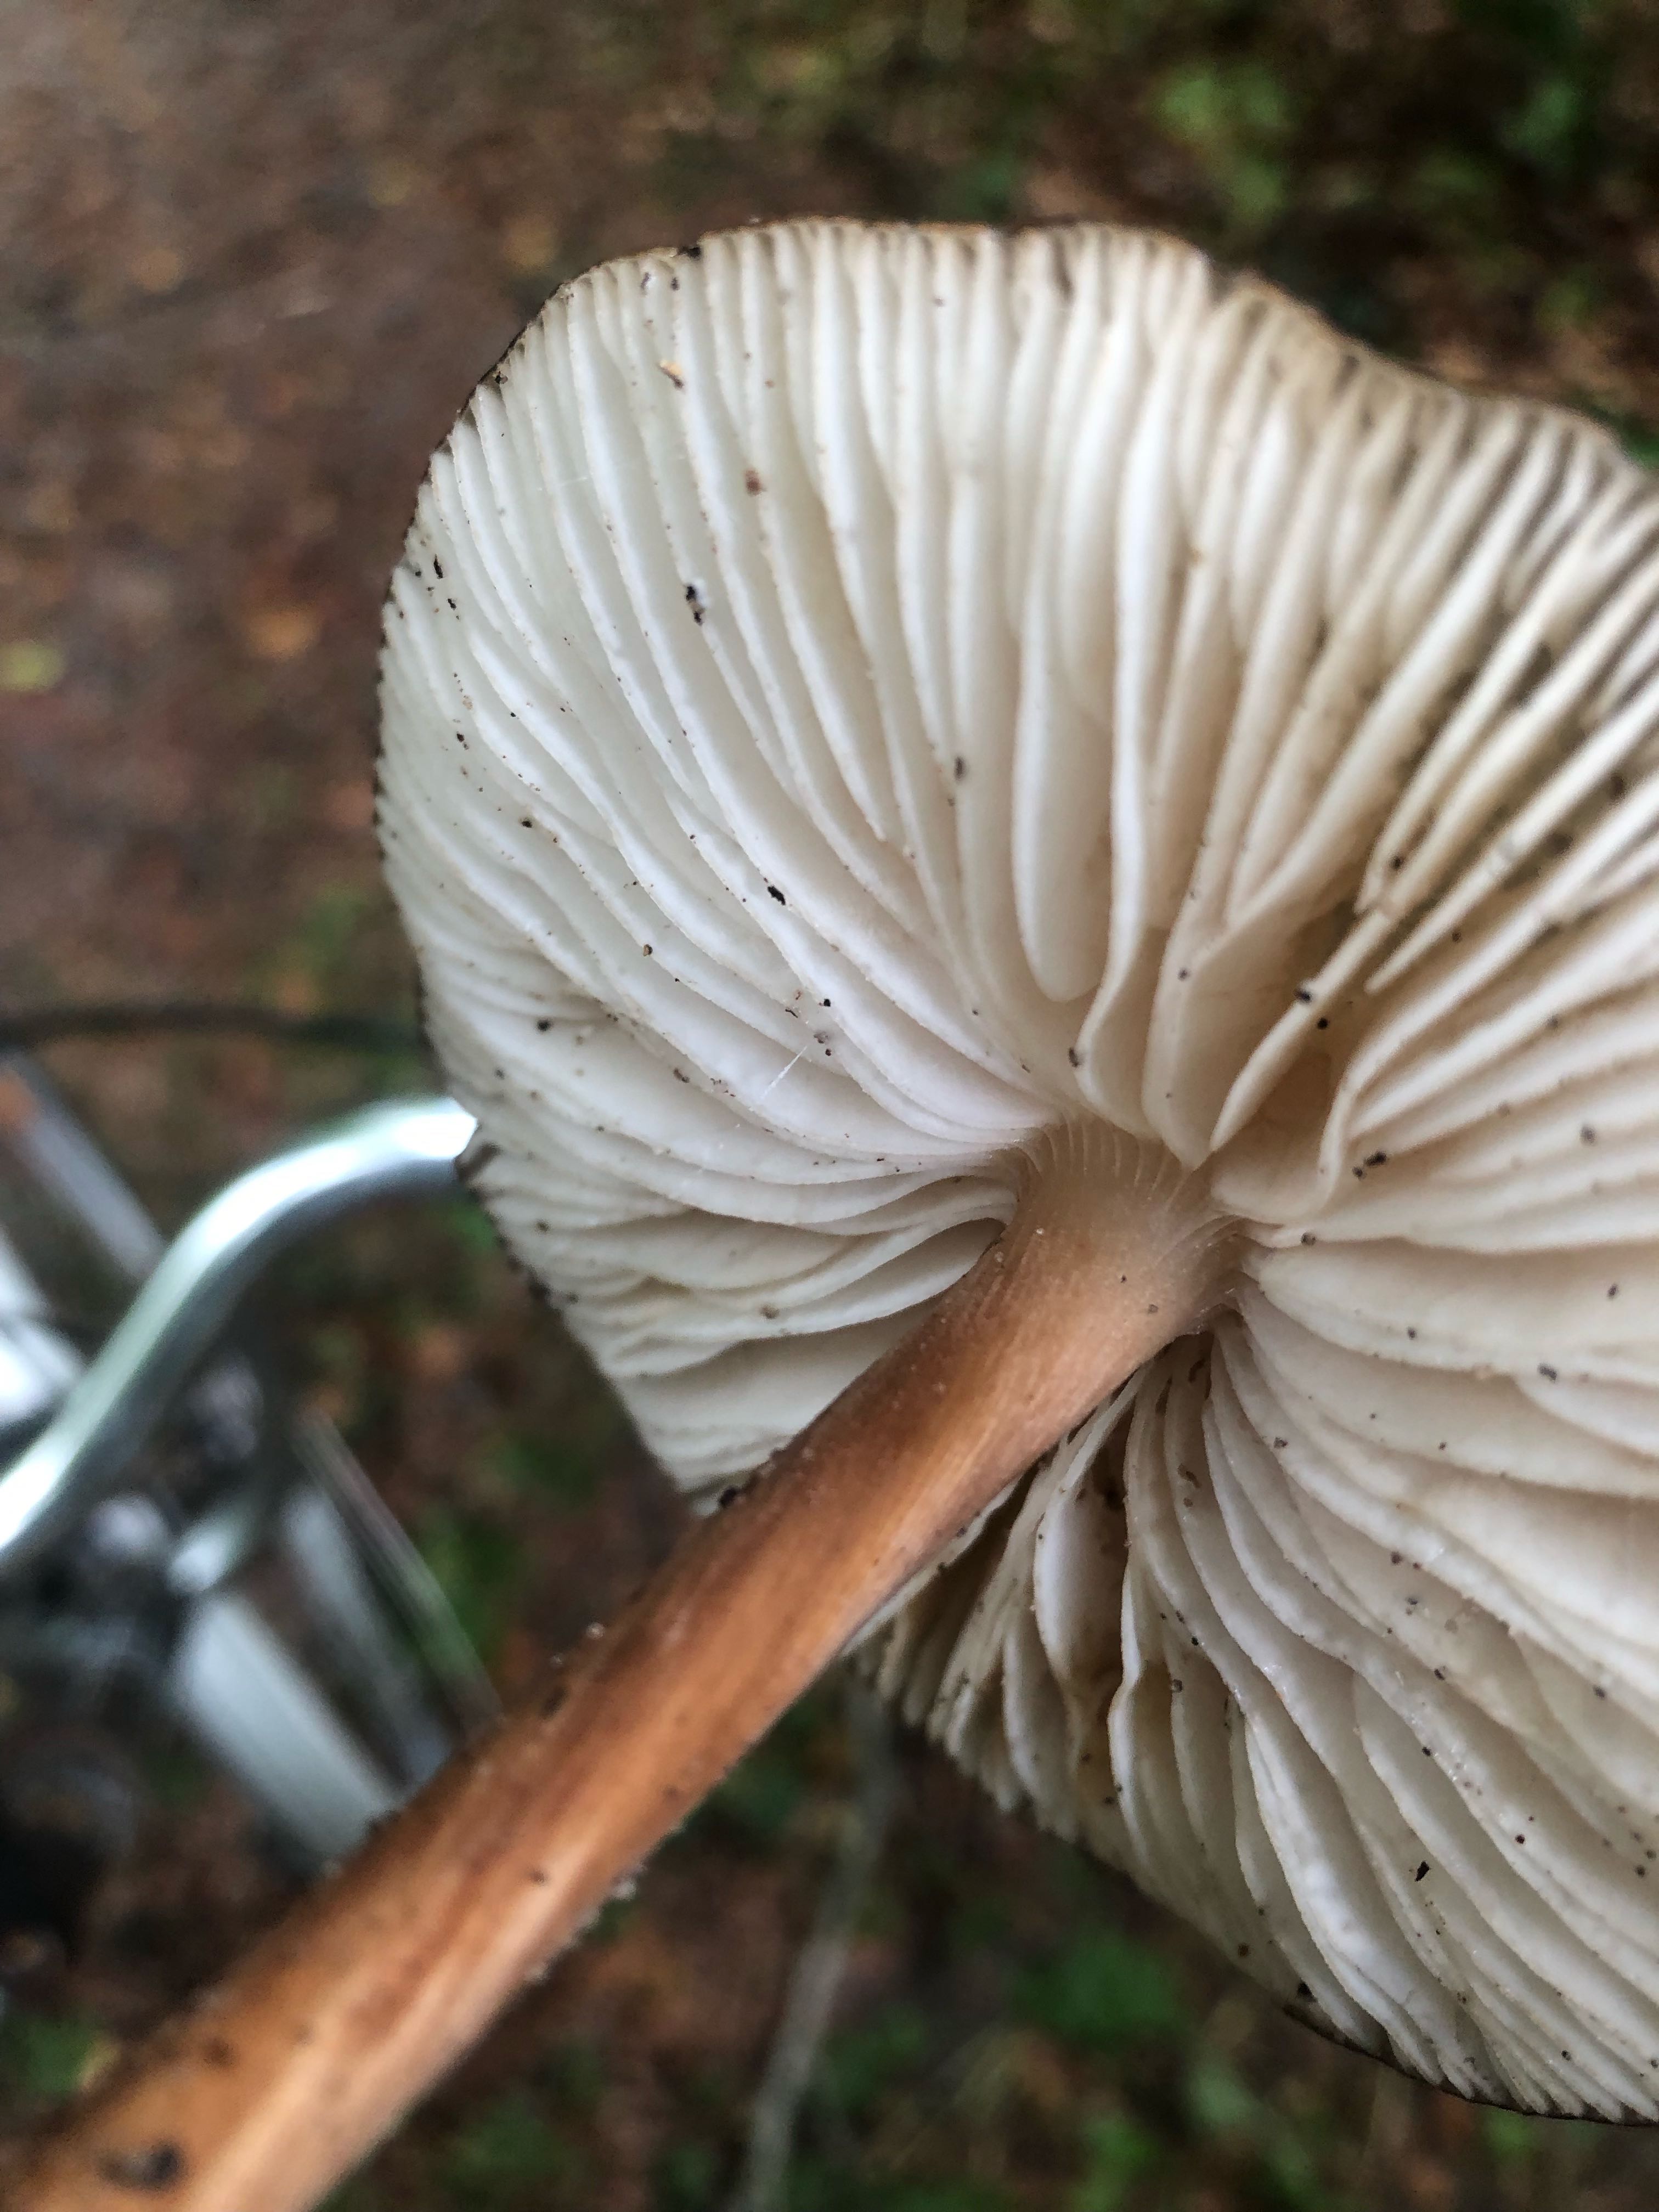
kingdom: Fungi
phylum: Basidiomycota
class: Agaricomycetes
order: Agaricales
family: Physalacriaceae
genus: Hymenopellis
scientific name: Hymenopellis radicata
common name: almindelig pælerodshat
